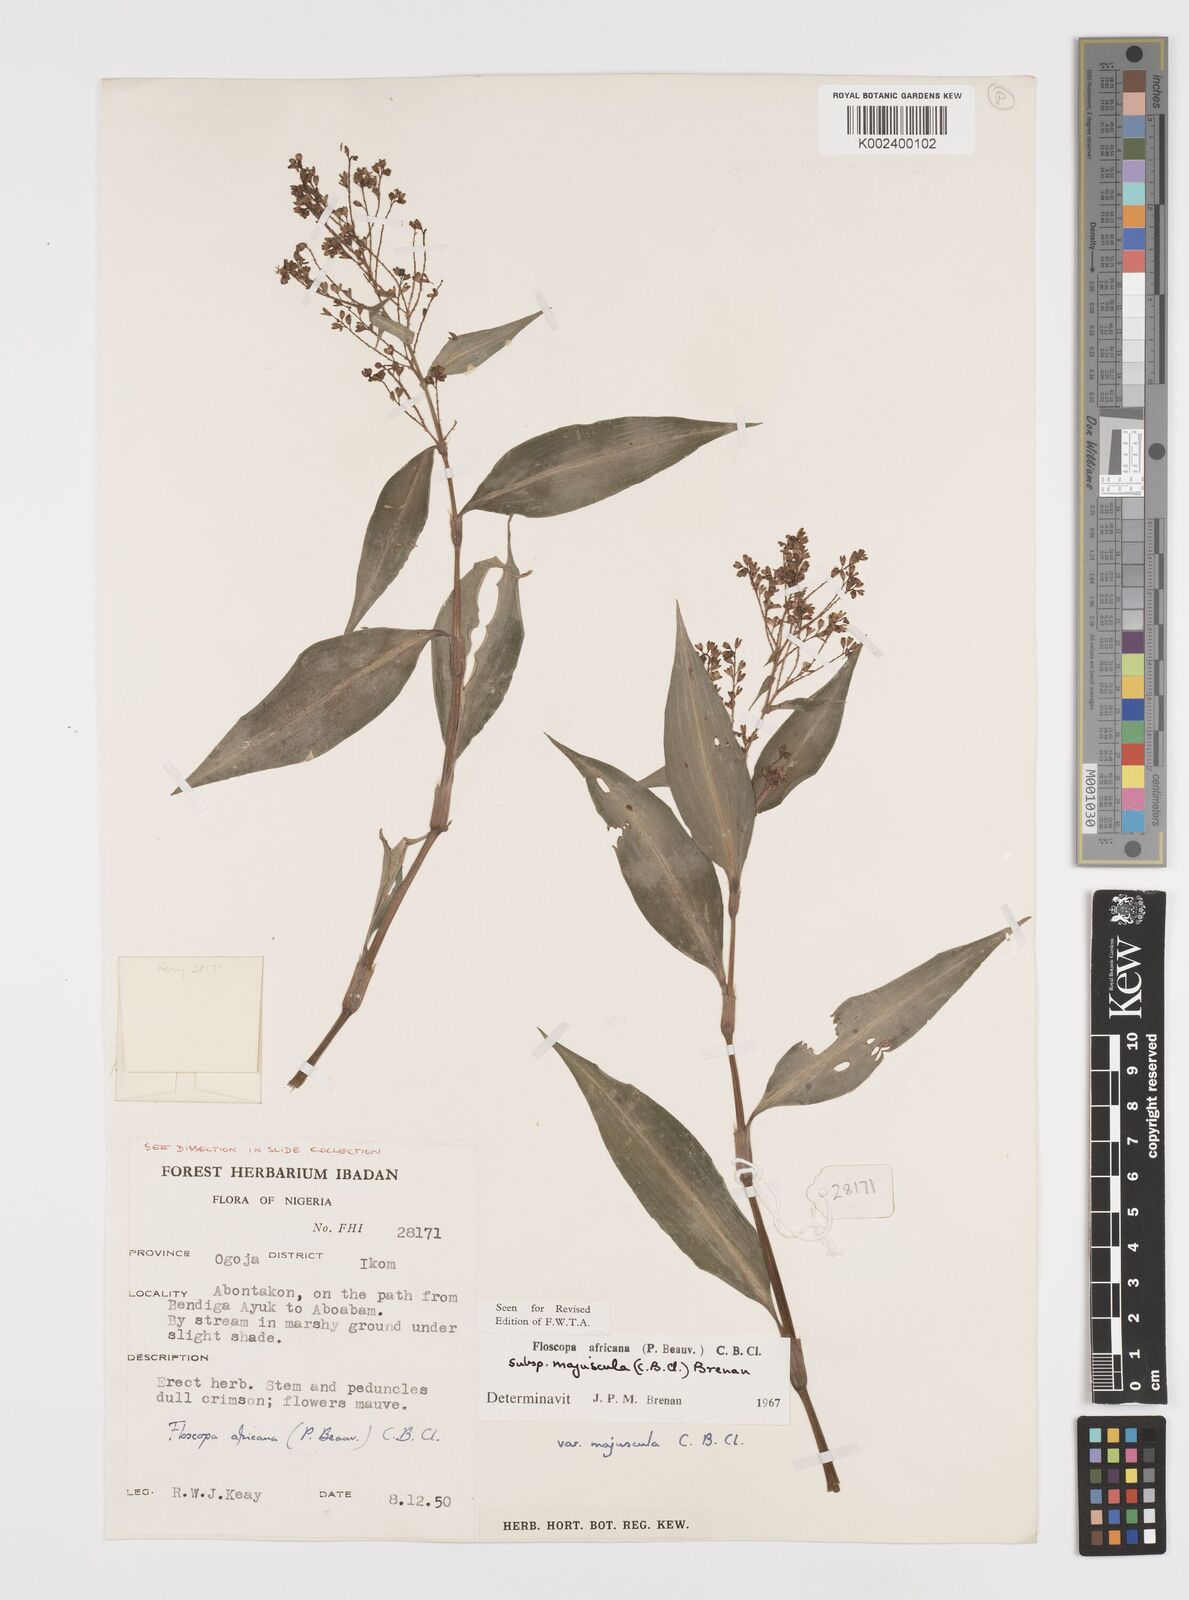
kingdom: Plantae
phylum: Tracheophyta
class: Liliopsida
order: Commelinales
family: Commelinaceae
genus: Floscopa
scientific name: Floscopa africana
